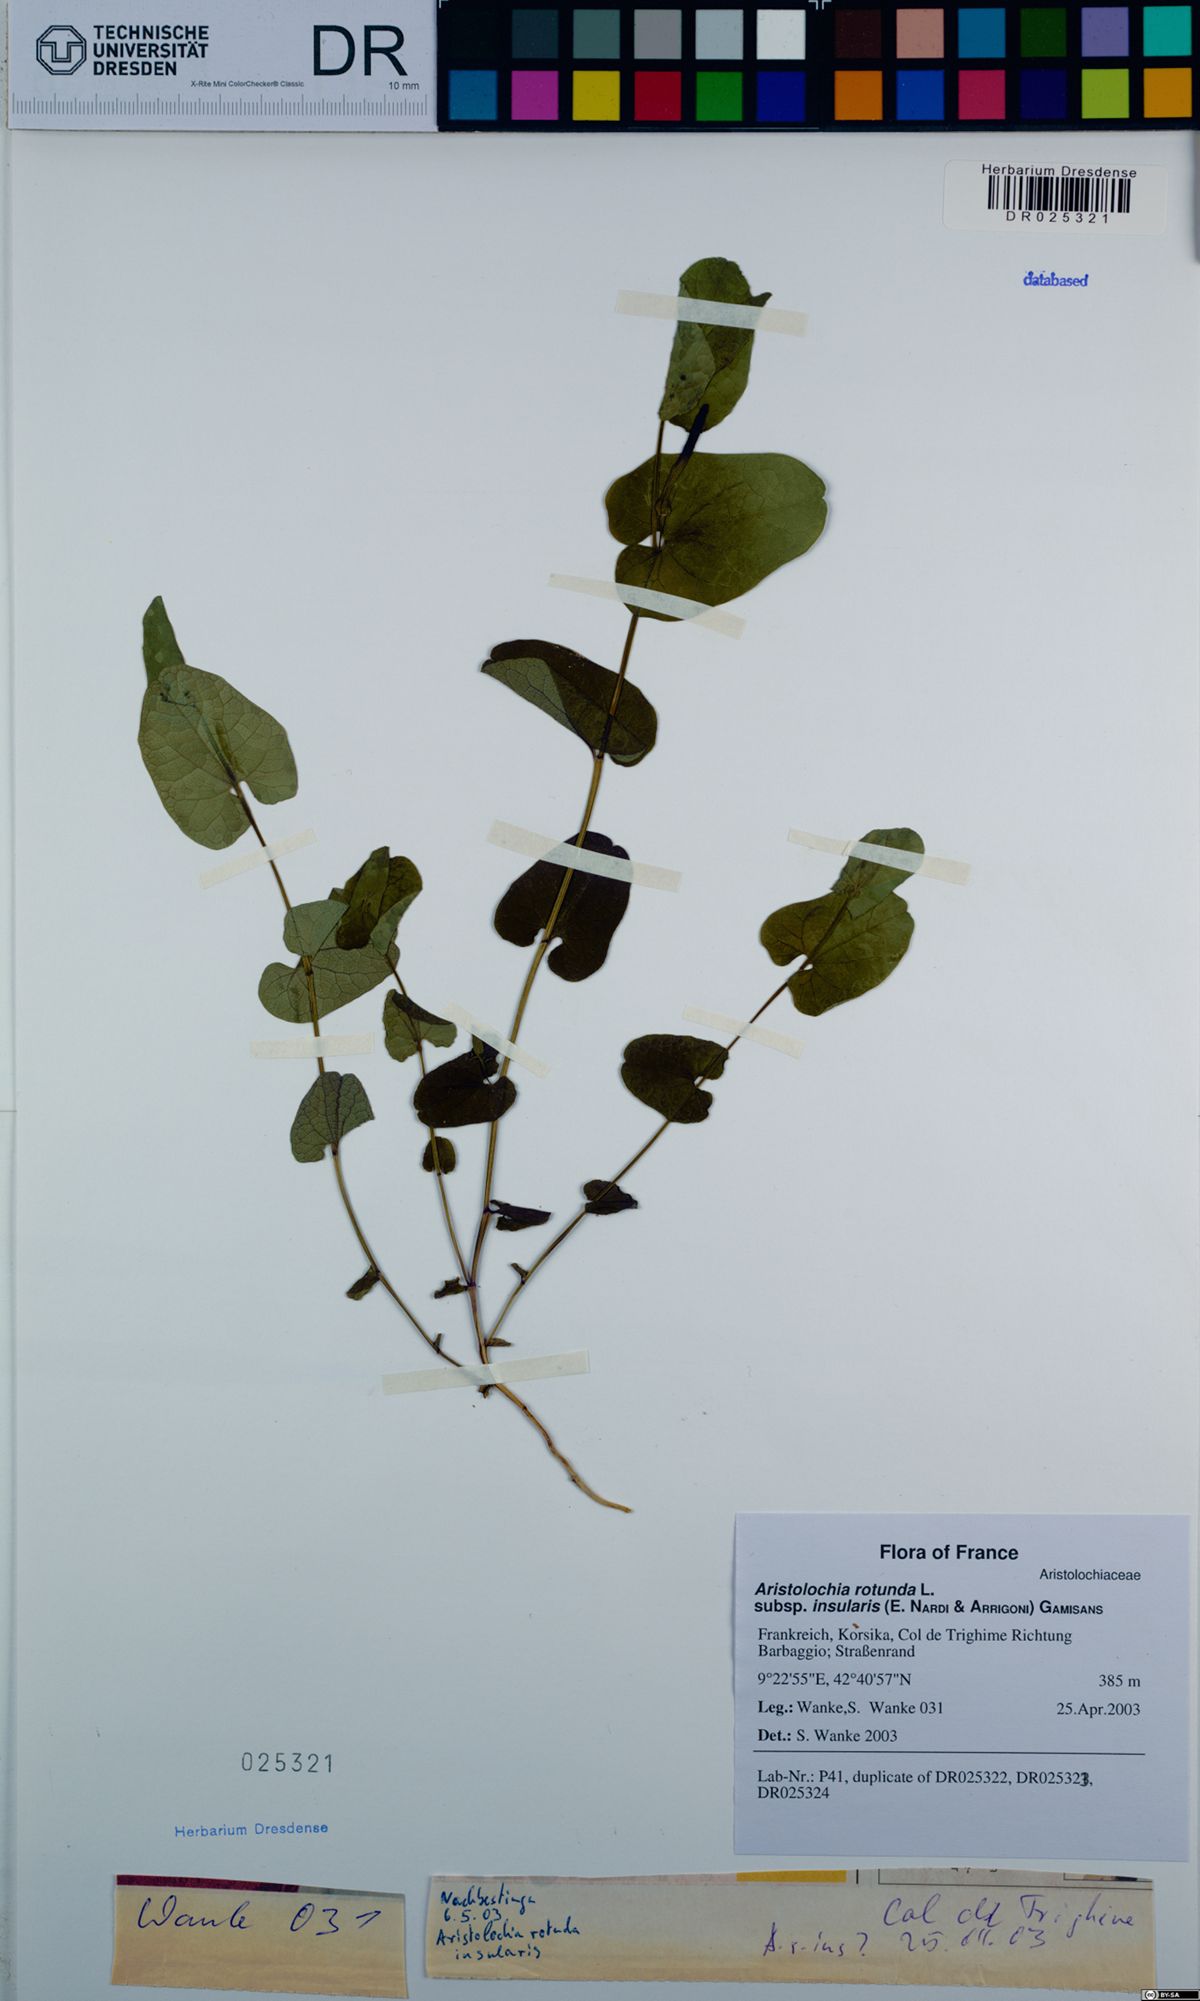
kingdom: Plantae
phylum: Tracheophyta
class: Magnoliopsida
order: Piperales
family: Aristolochiaceae
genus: Aristolochia
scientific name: Aristolochia rotunda
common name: Smearwort
